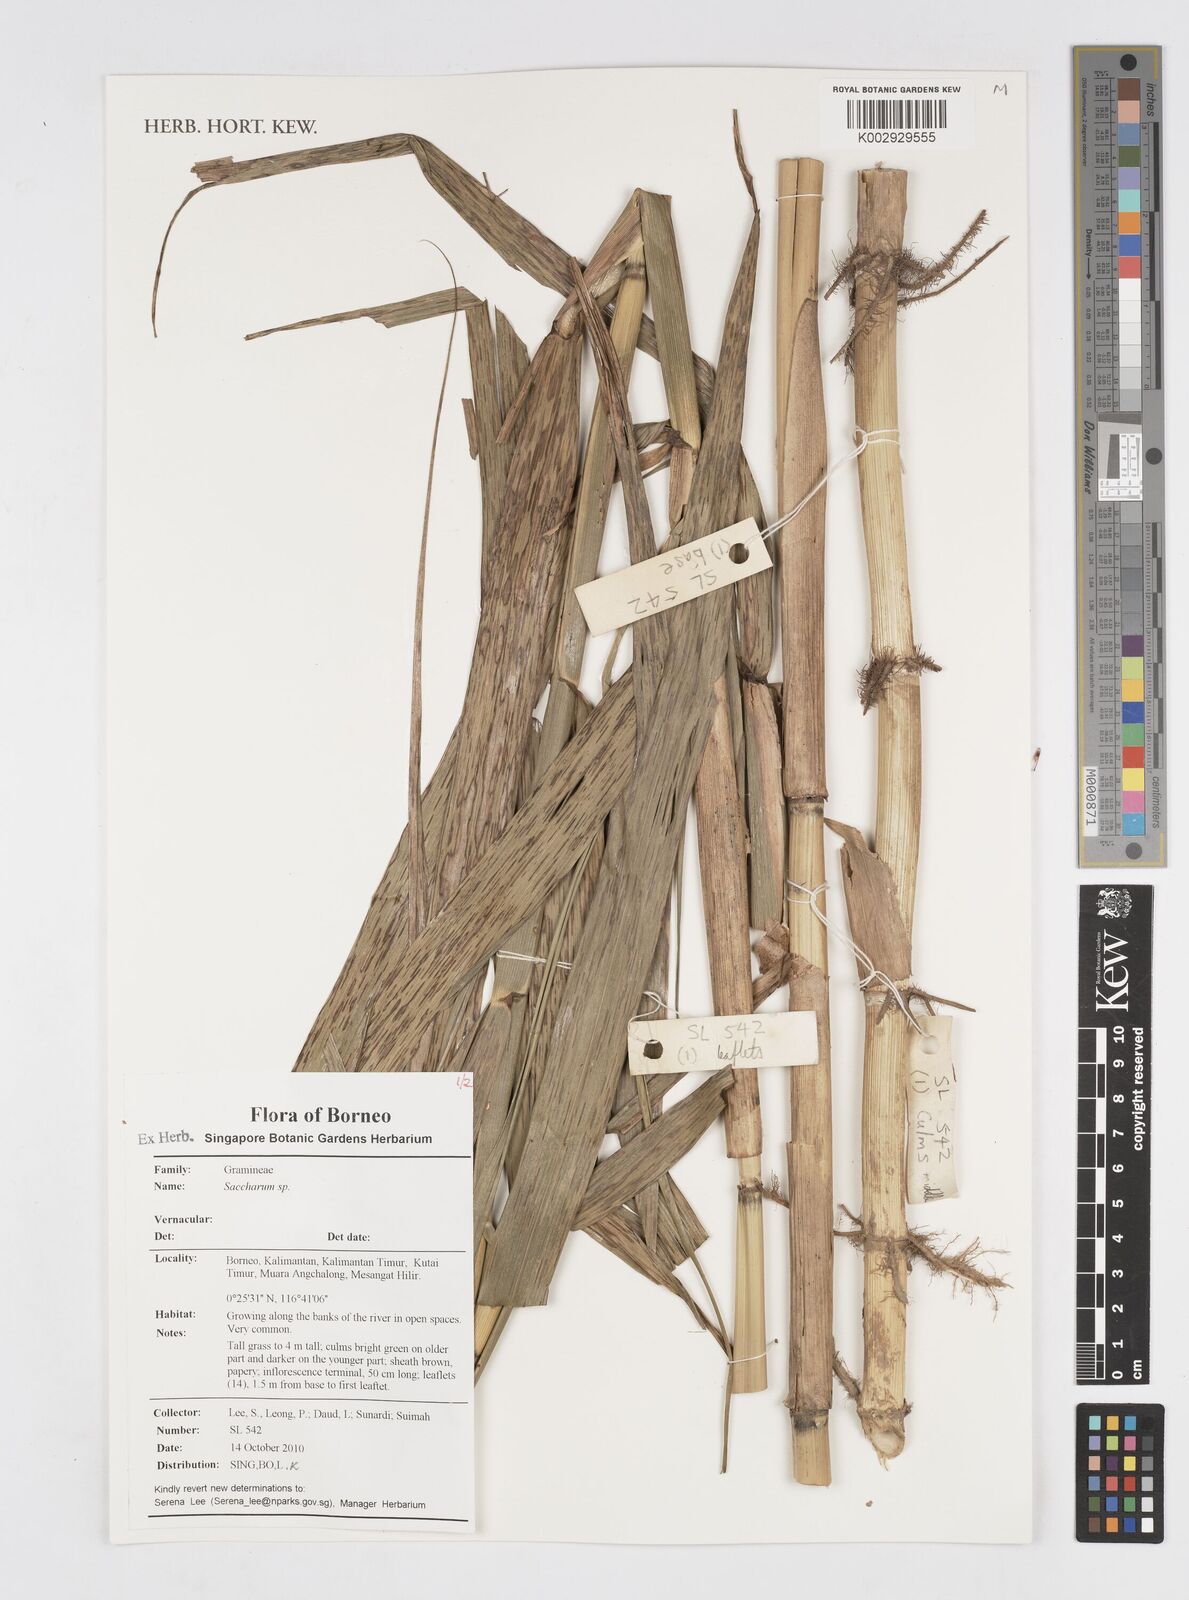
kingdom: Plantae
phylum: Tracheophyta
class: Liliopsida
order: Poales
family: Poaceae
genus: Saccharum
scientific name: Saccharum
